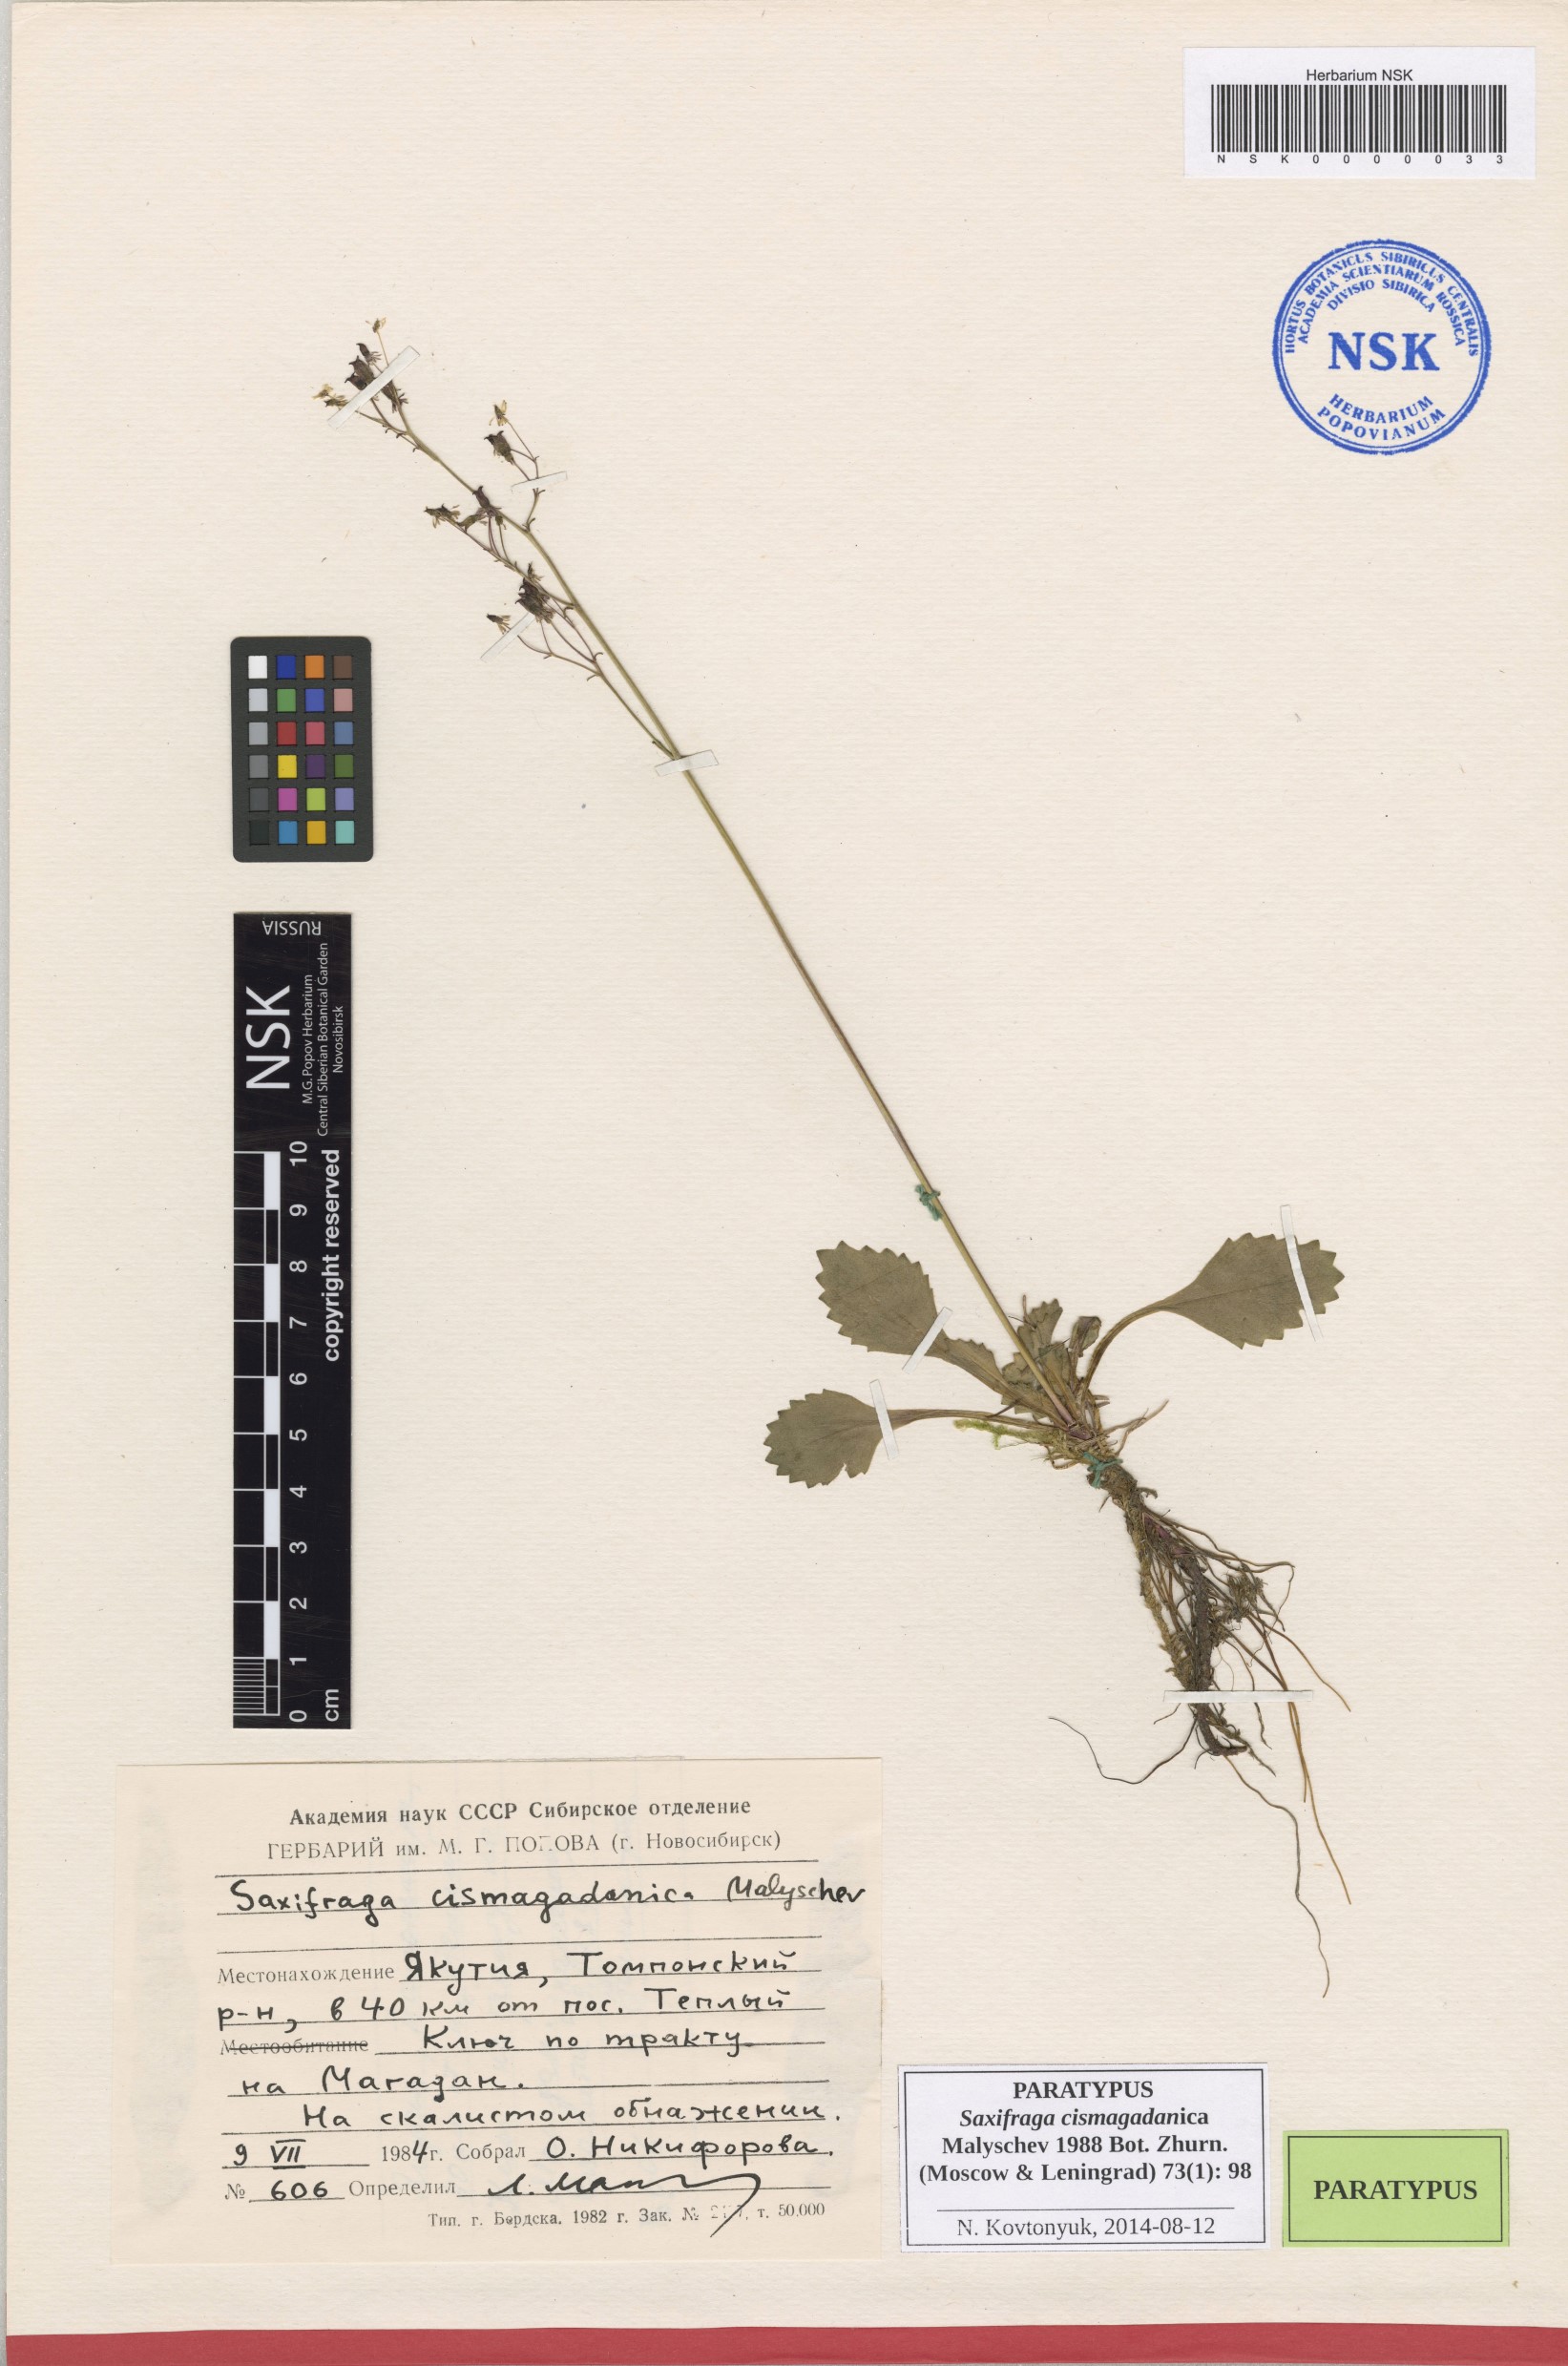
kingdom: Plantae
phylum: Tracheophyta
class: Magnoliopsida
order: Saxifragales
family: Saxifragaceae
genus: Micranthes
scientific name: Micranthes cismagadanica
